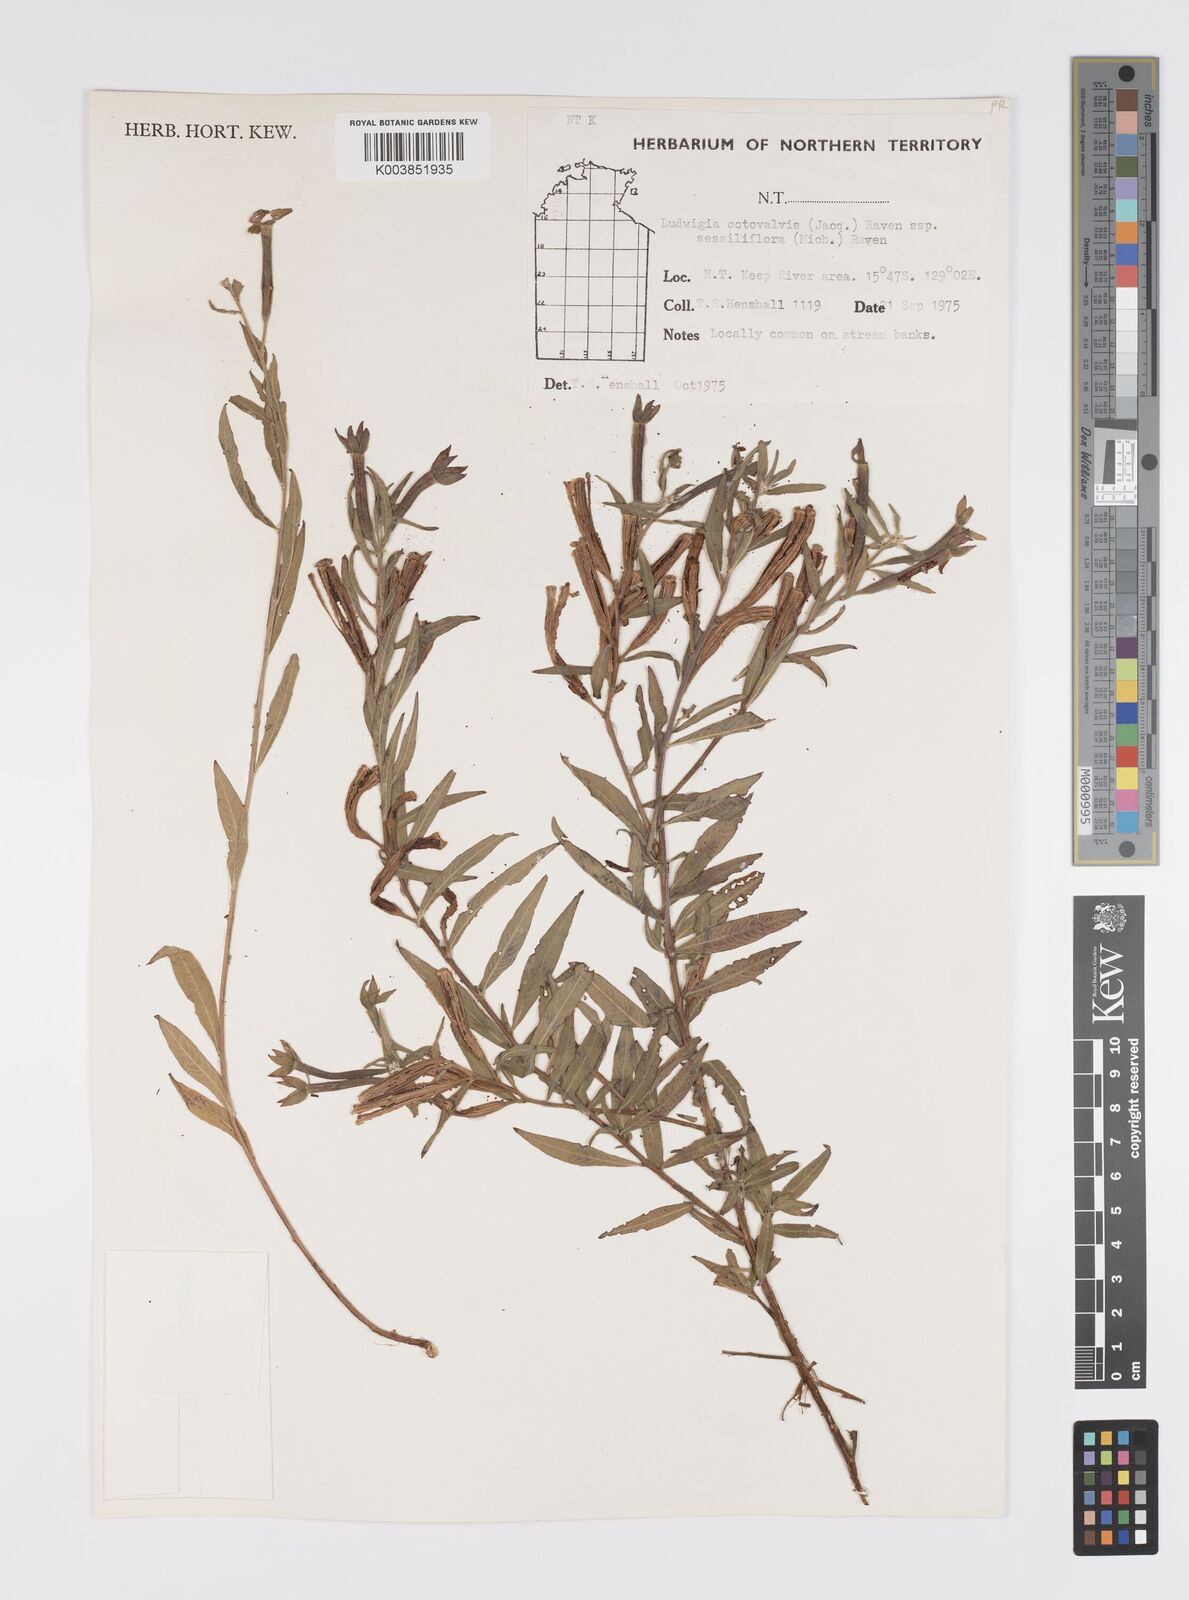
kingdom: Plantae
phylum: Tracheophyta
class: Magnoliopsida
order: Myrtales
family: Onagraceae
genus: Ludwigia
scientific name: Ludwigia octovalvis
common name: Water-primrose
